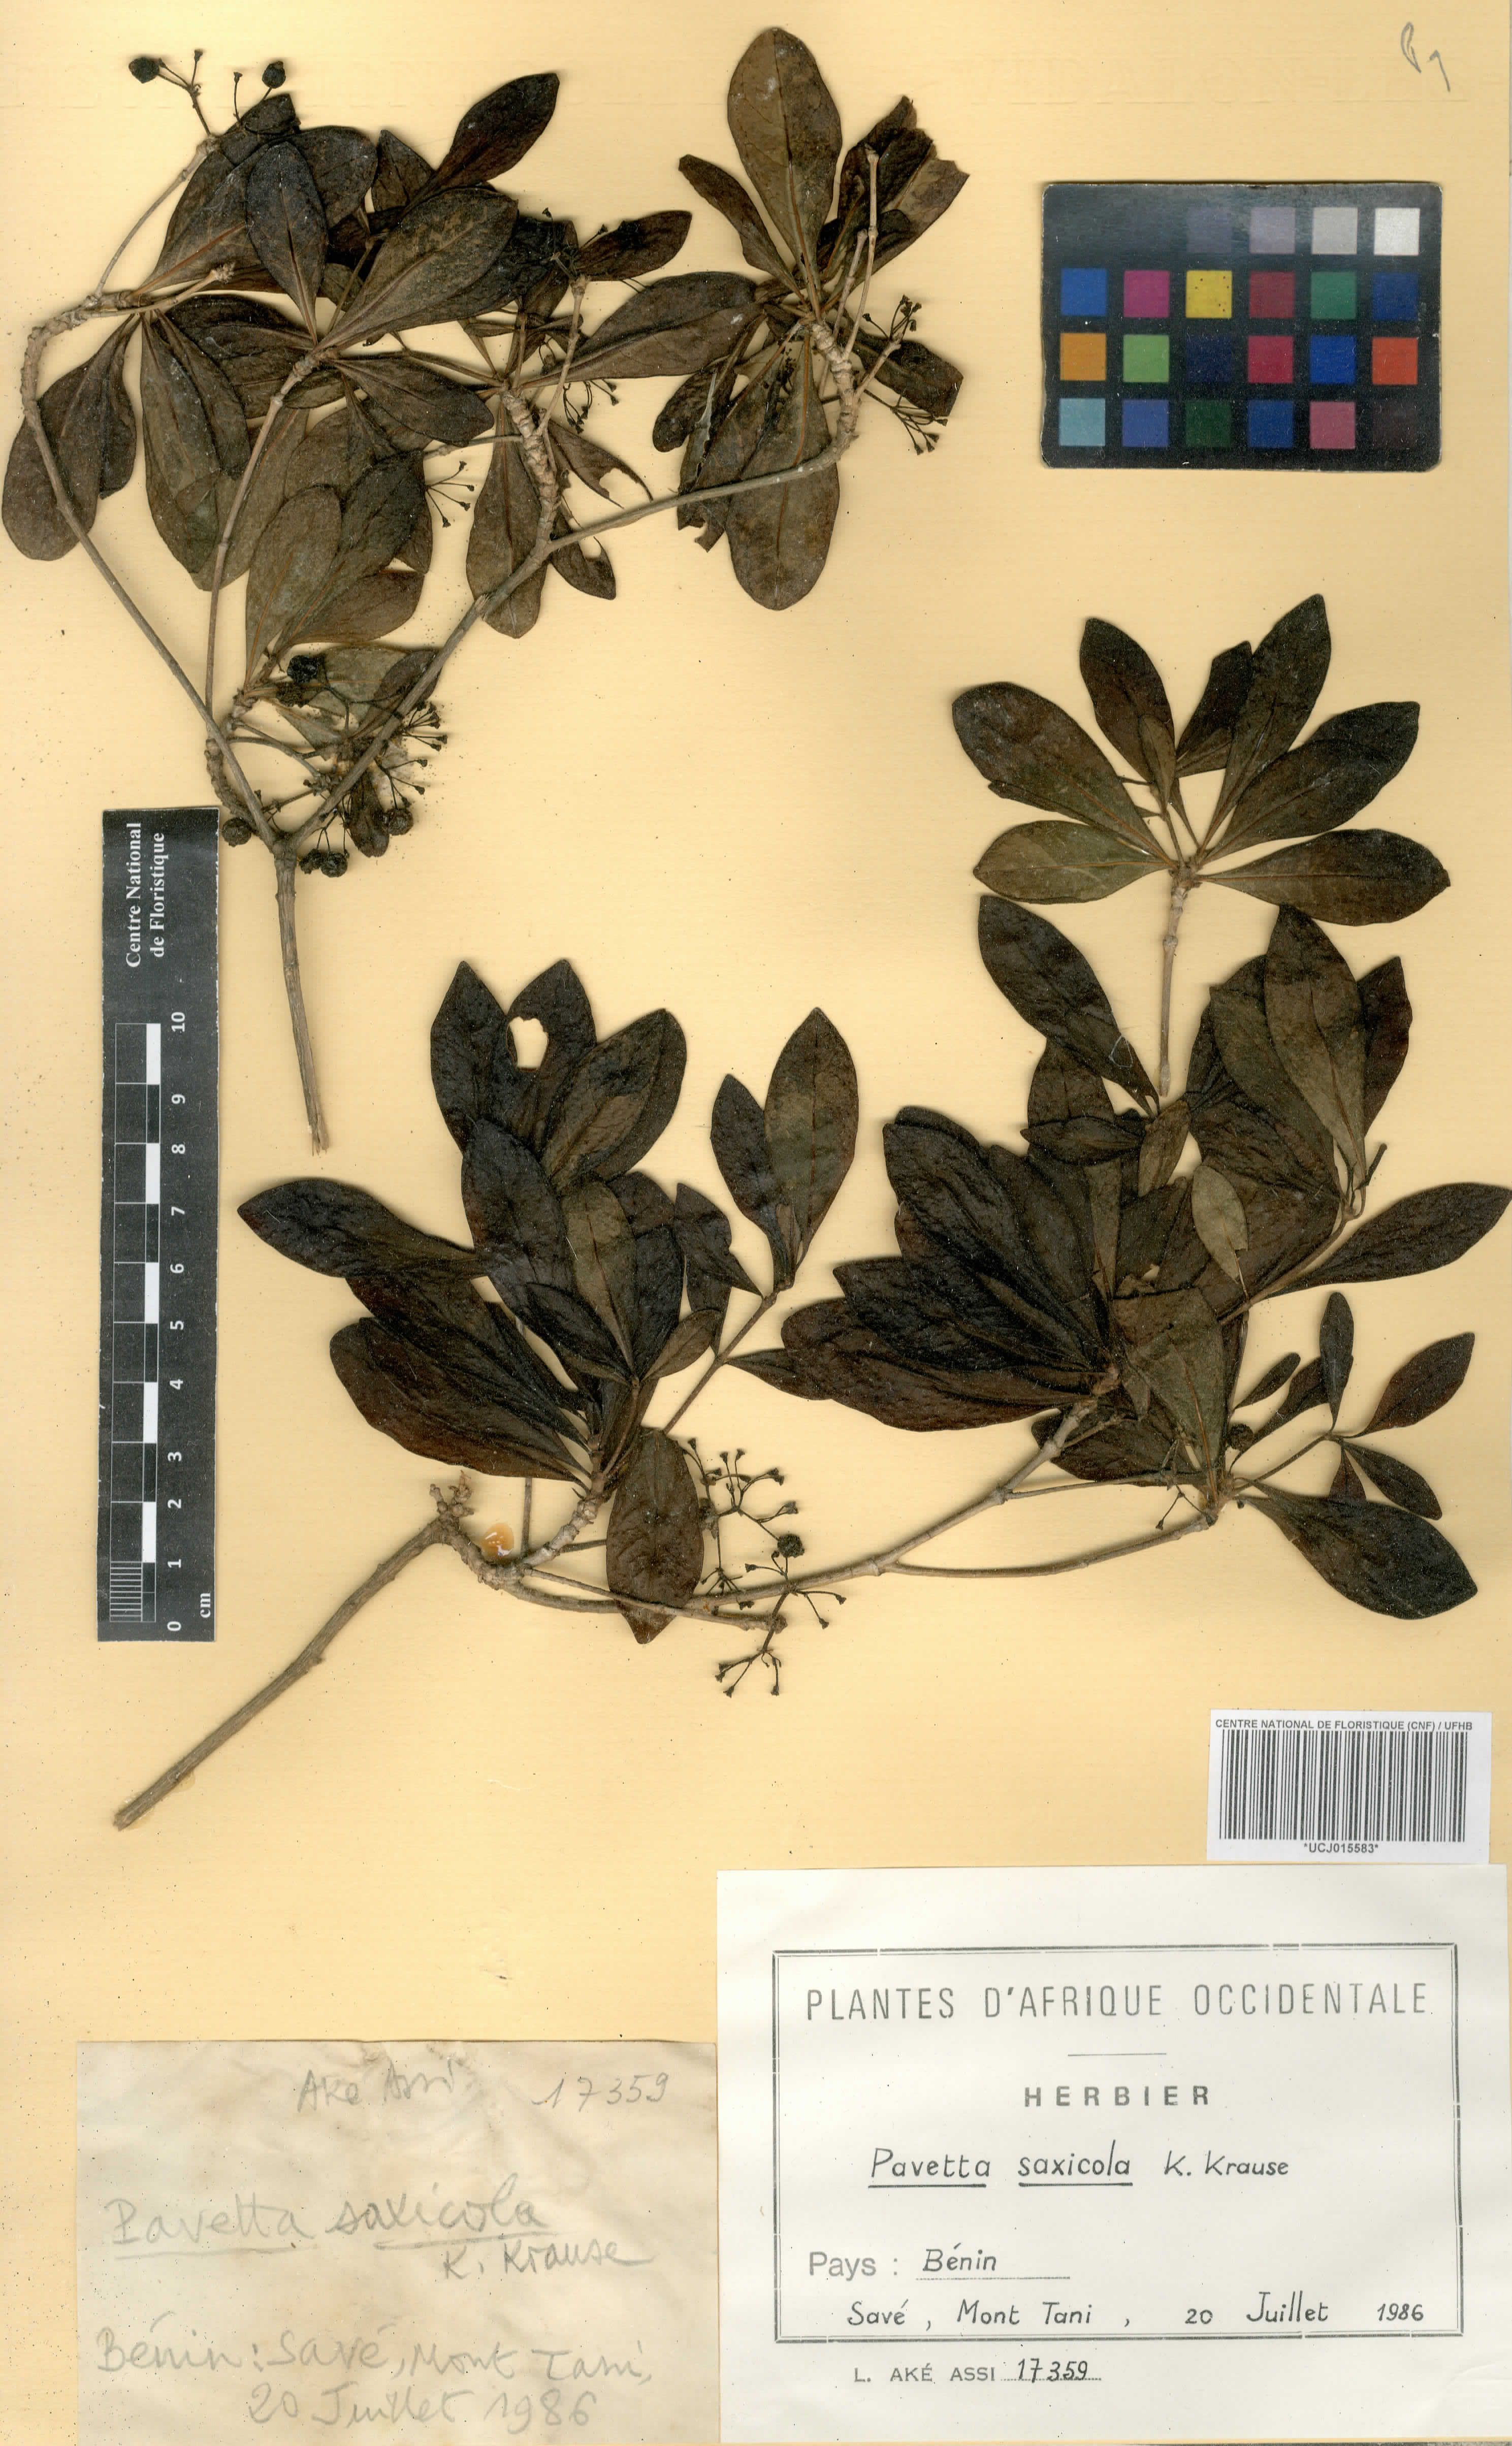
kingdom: Plantae
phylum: Tracheophyta
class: Magnoliopsida
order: Gentianales
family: Rubiaceae
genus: Pavetta
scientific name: Pavetta gardeniifolia
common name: Common brides-bush
